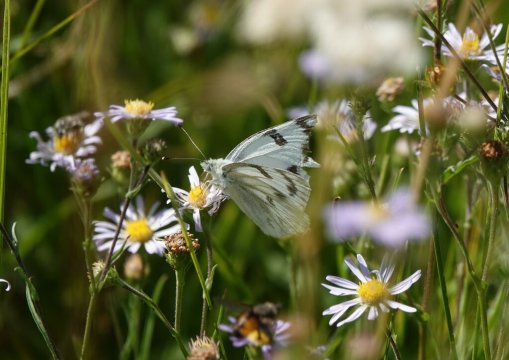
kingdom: Animalia
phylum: Arthropoda
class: Insecta
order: Lepidoptera
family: Pieridae
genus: Pontia
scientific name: Pontia protodice
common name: Checkered White
